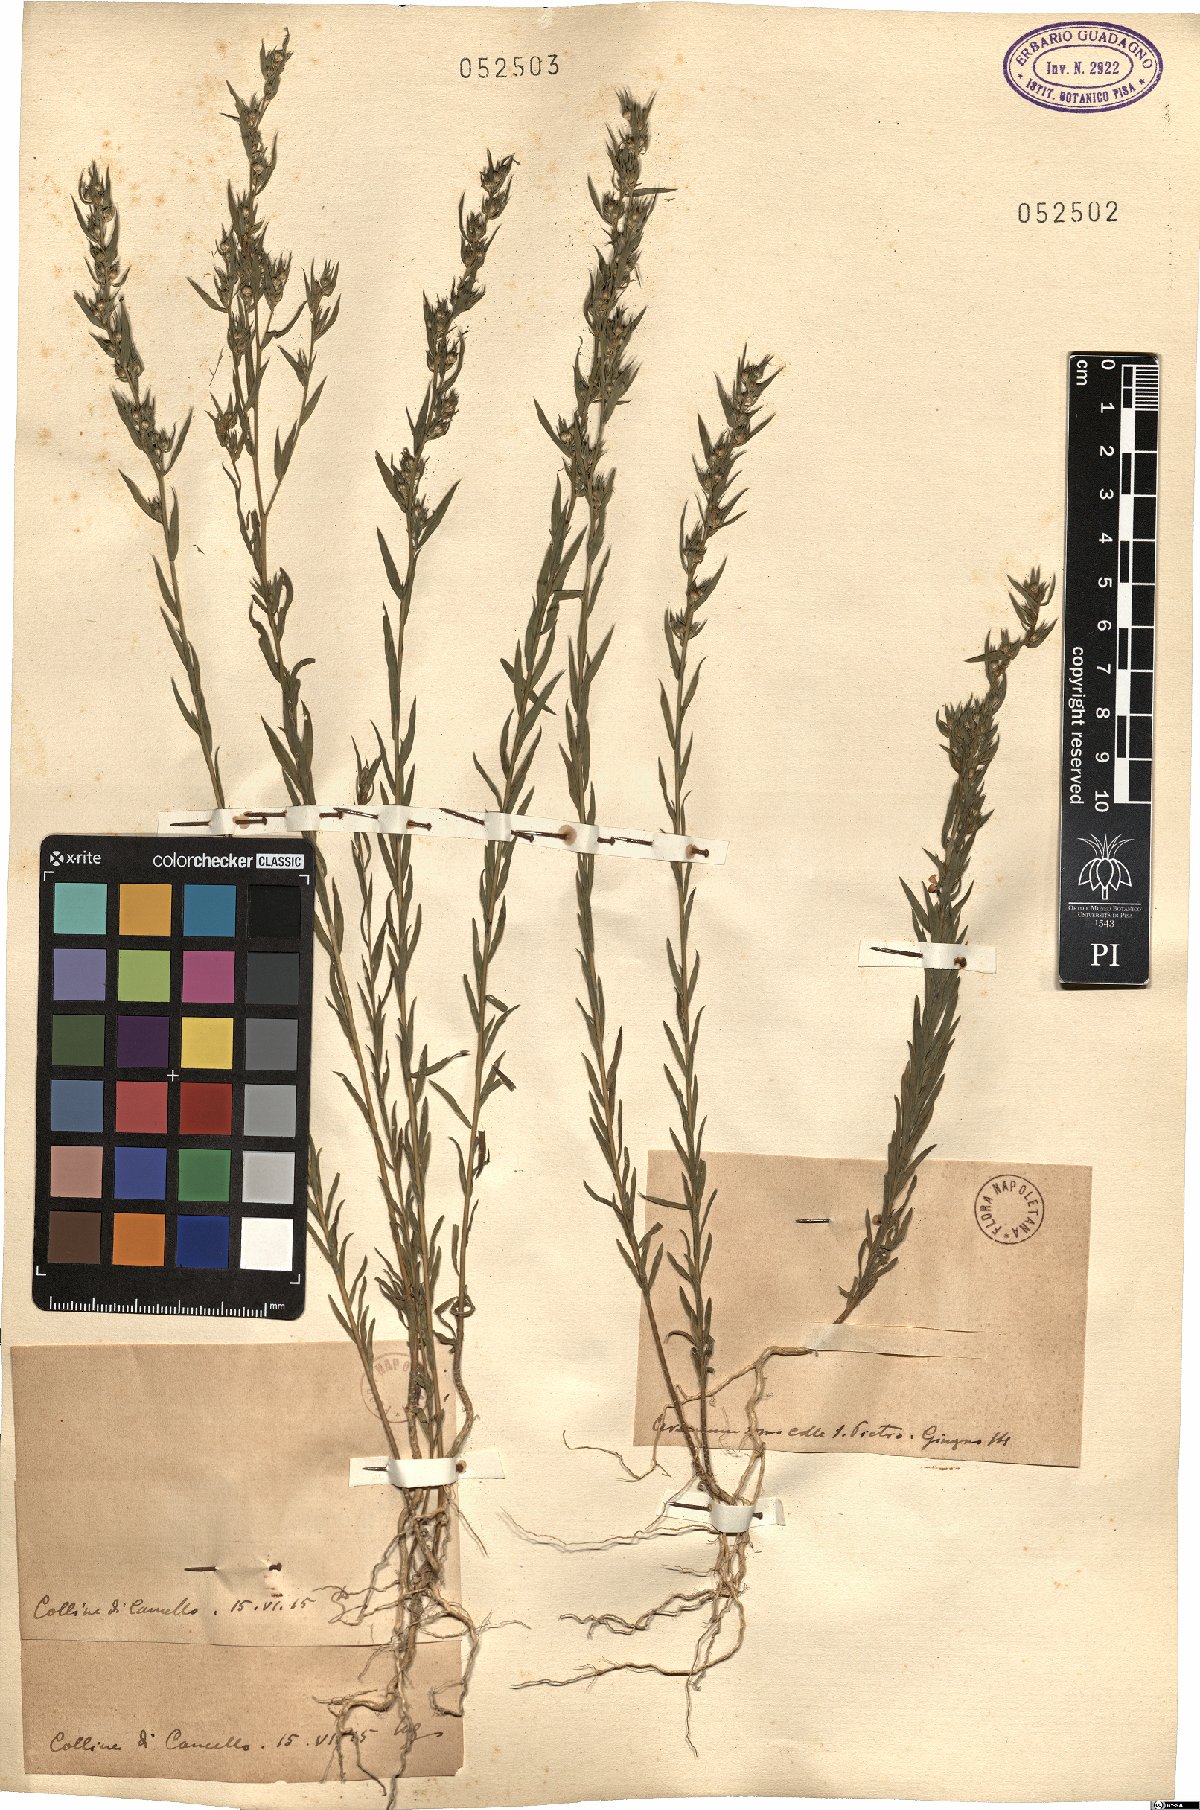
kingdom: Plantae
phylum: Tracheophyta
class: Magnoliopsida
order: Malpighiales
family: Linaceae
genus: Linum
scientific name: Linum
